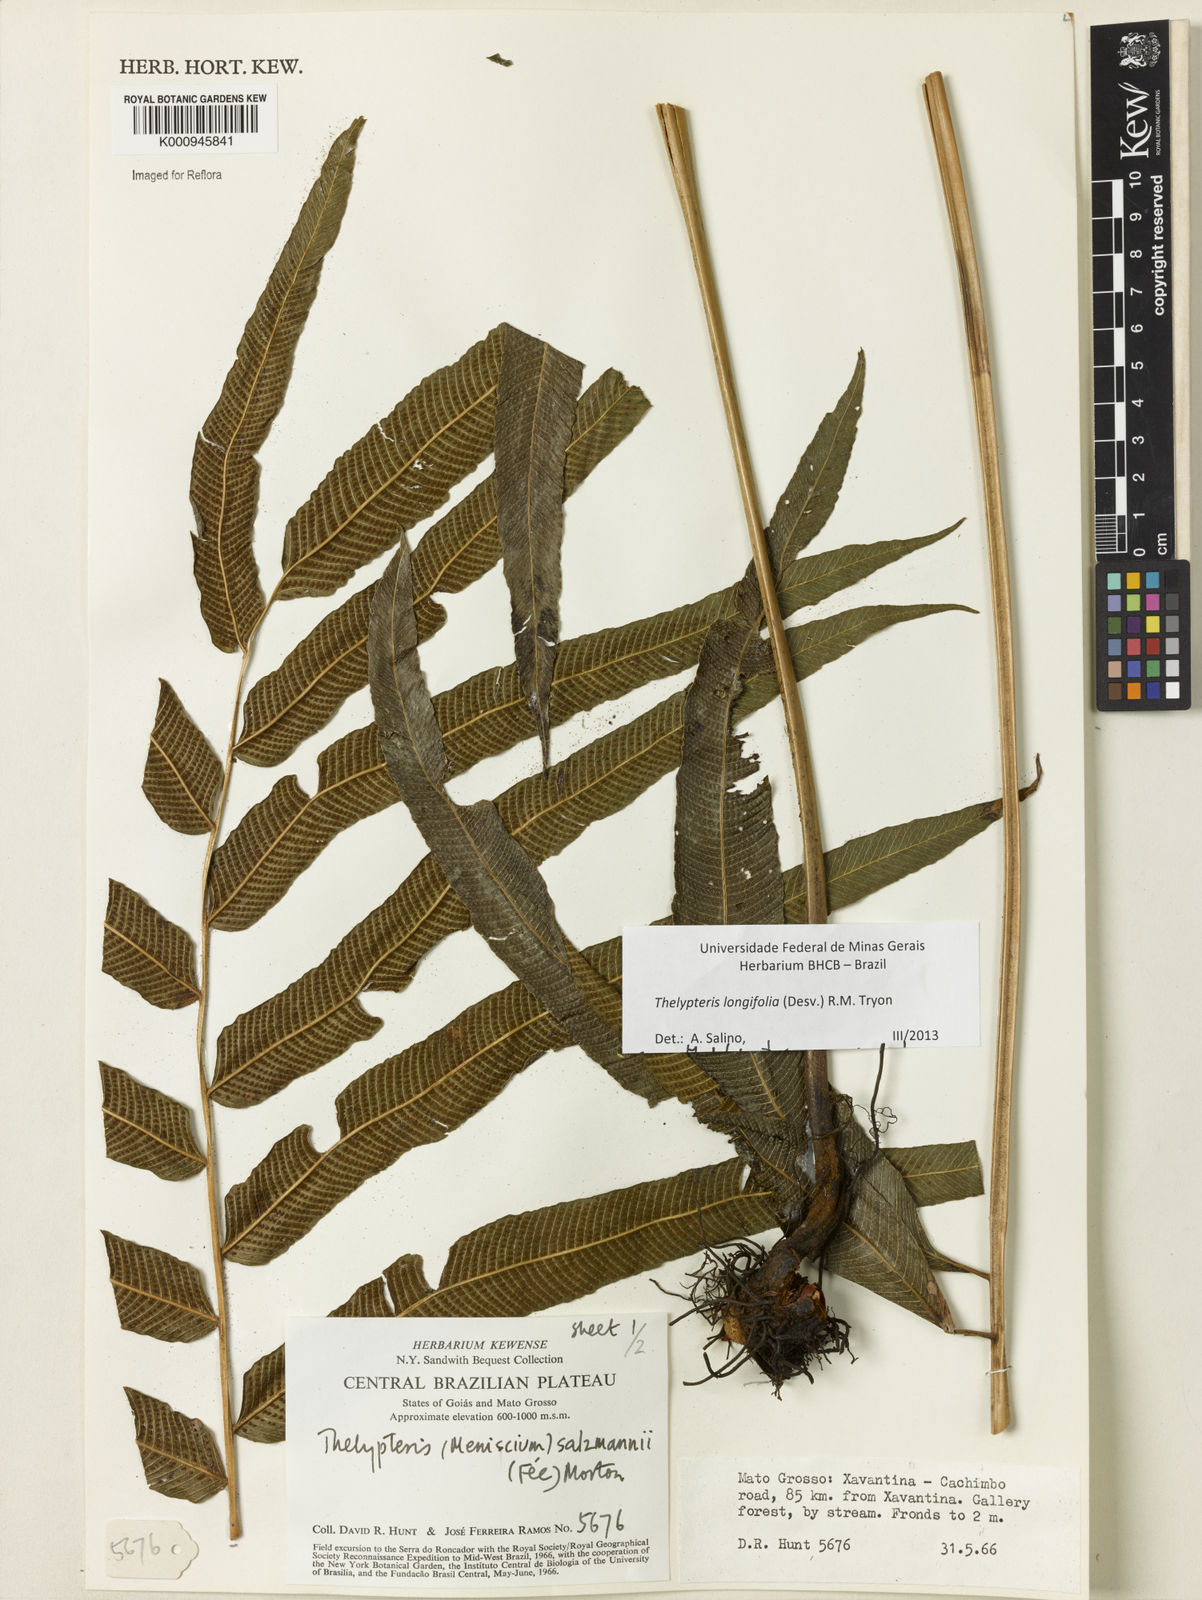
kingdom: Plantae
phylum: Tracheophyta
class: Polypodiopsida
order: Polypodiales
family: Thelypteridaceae
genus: Meniscium
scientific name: Meniscium longifolium
